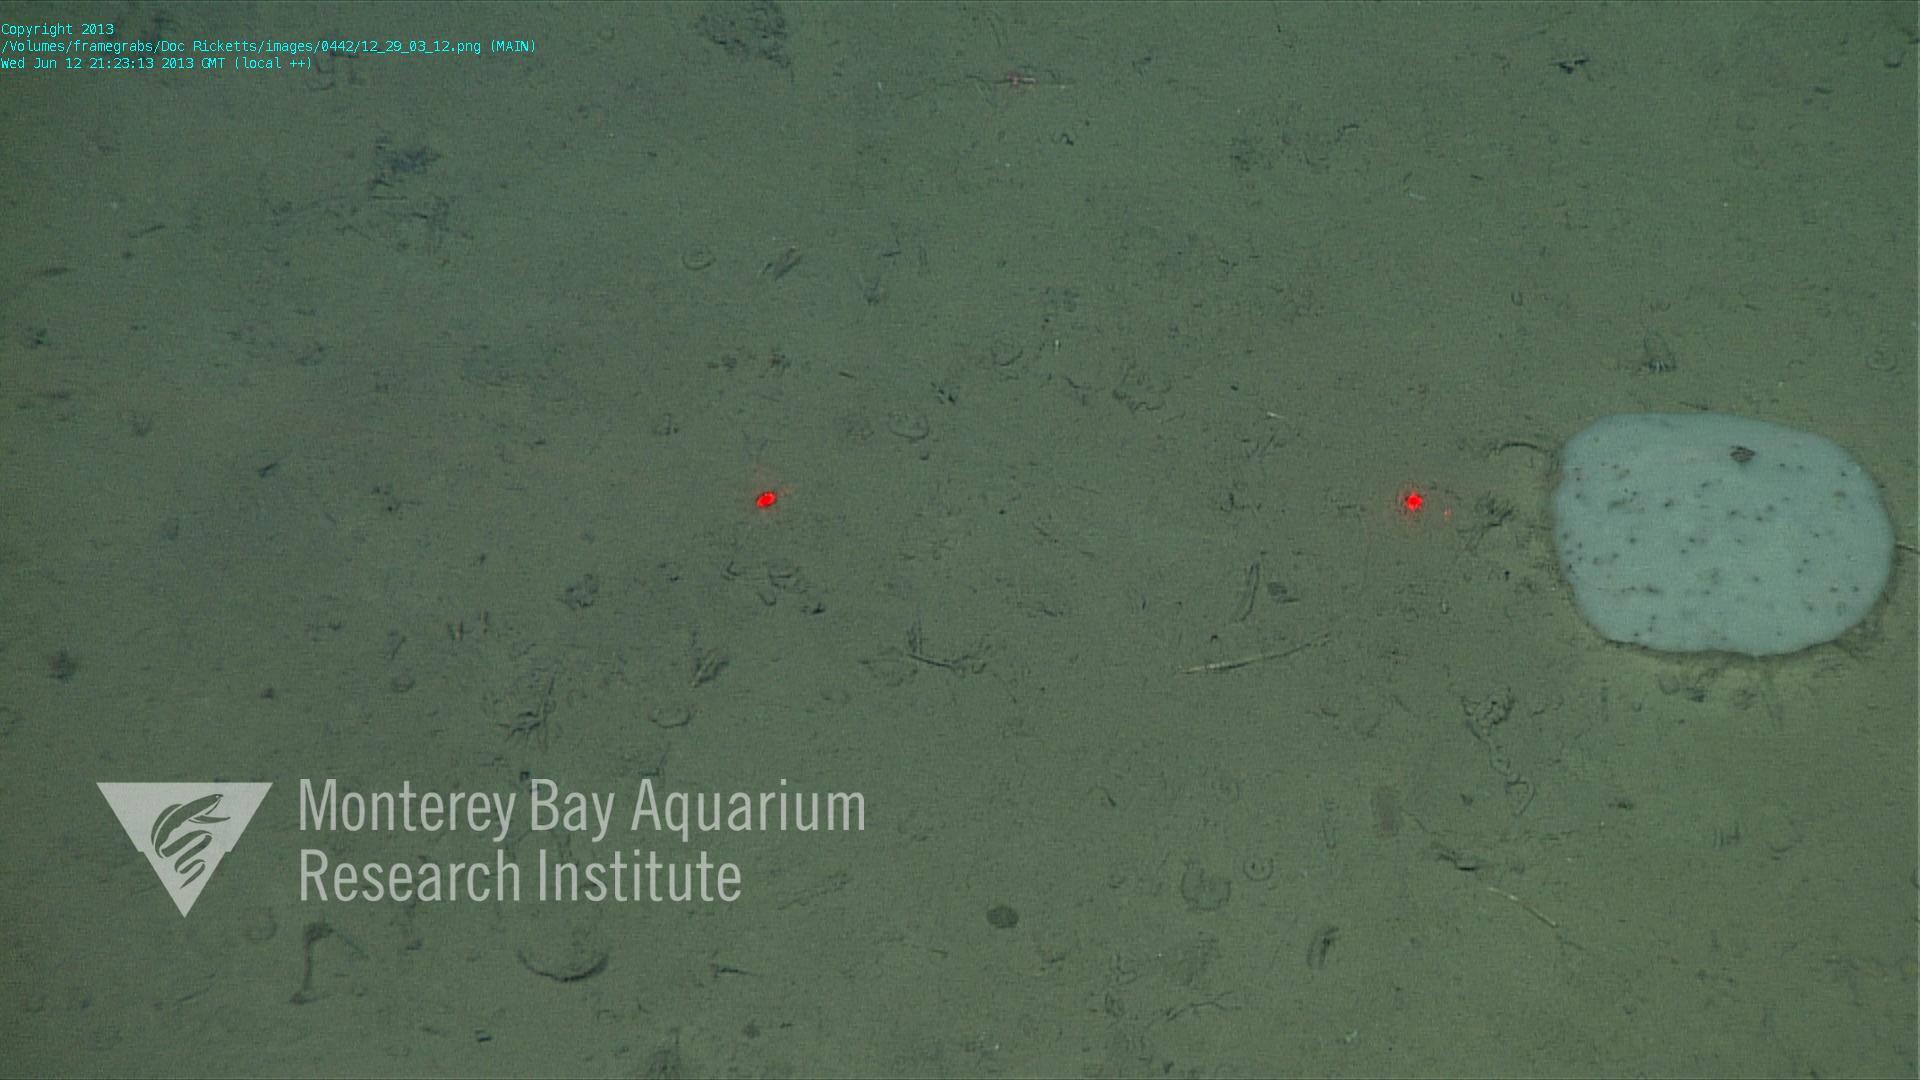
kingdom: Animalia
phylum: Porifera
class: Hexactinellida
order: Lyssacinosida
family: Euplectellidae
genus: Docosaccus
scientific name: Docosaccus maculatus
